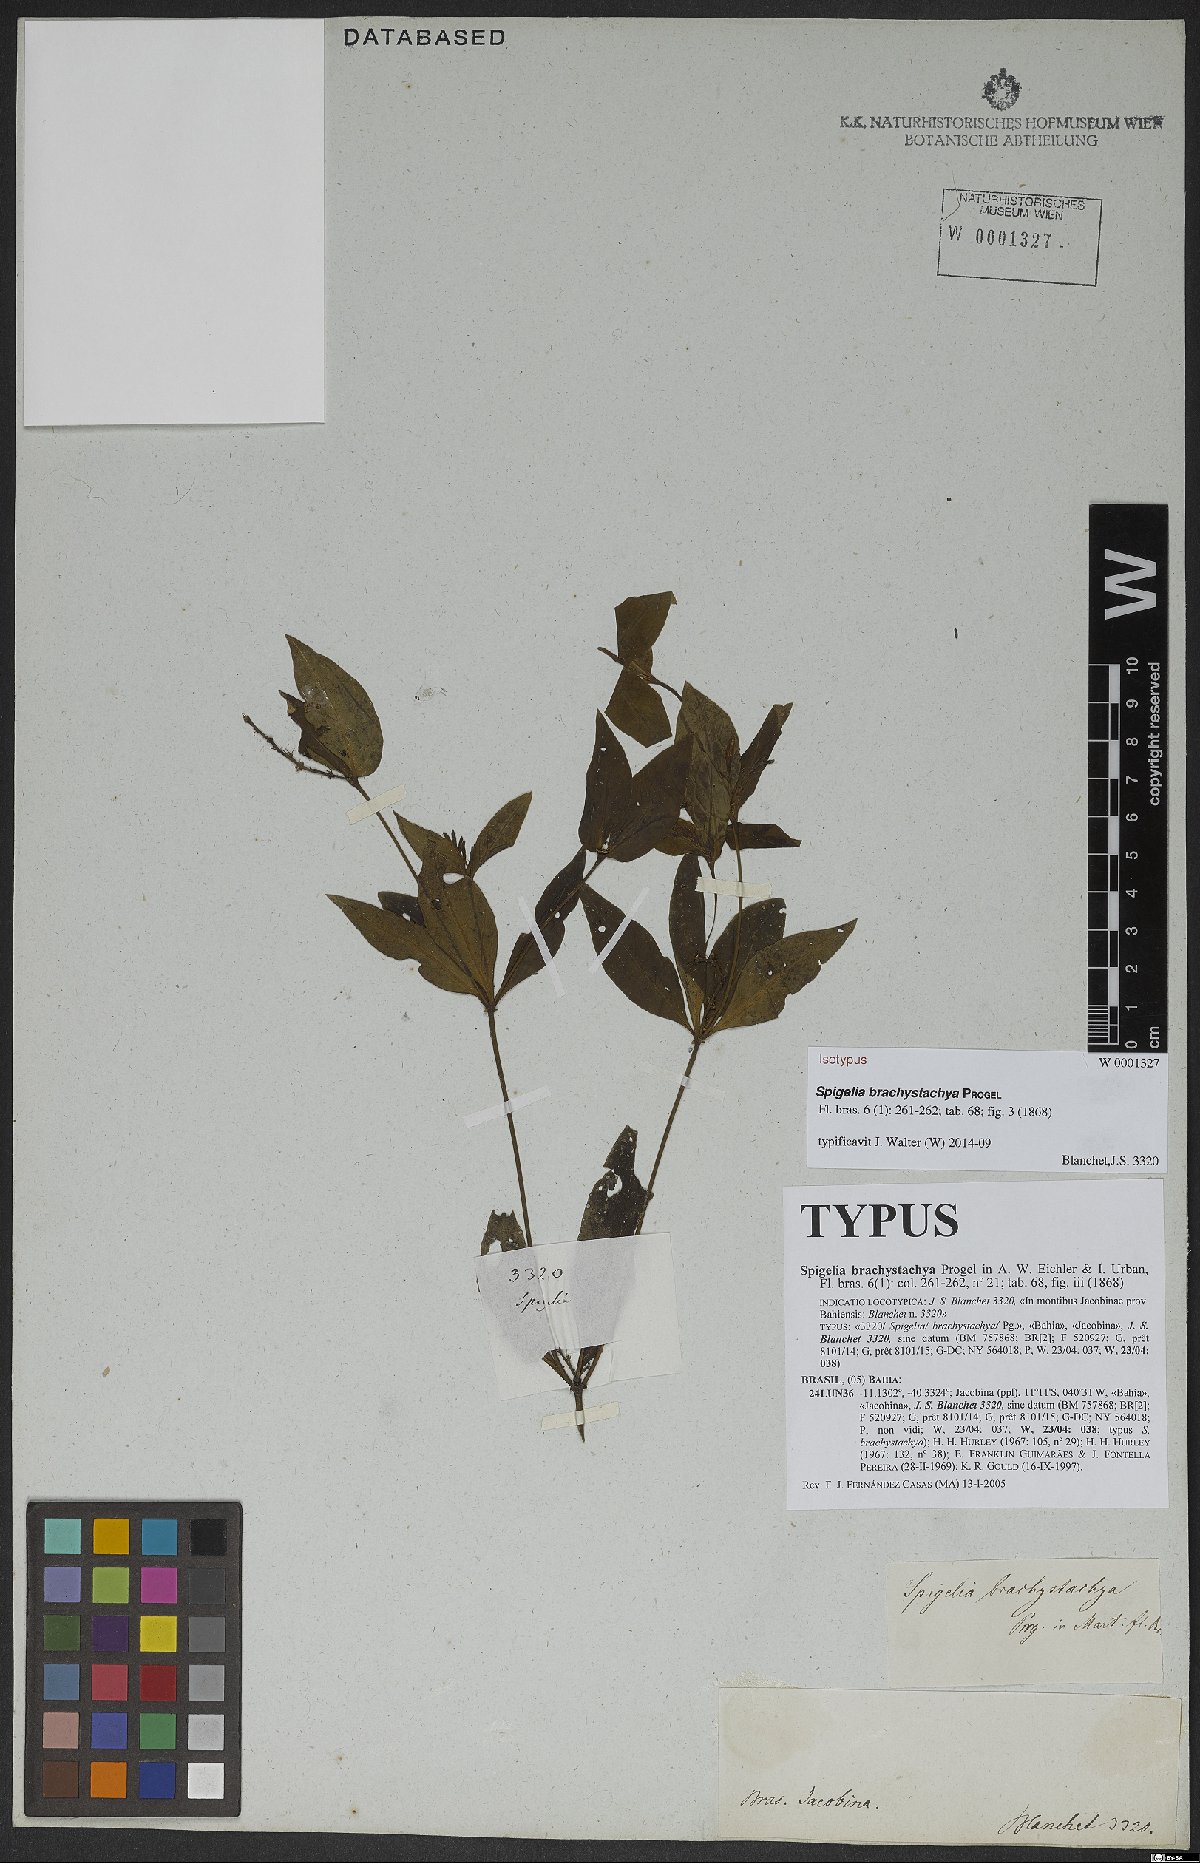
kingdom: Plantae
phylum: Tracheophyta
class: Magnoliopsida
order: Gentianales
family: Loganiaceae
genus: Spigelia
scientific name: Spigelia brachystachya
